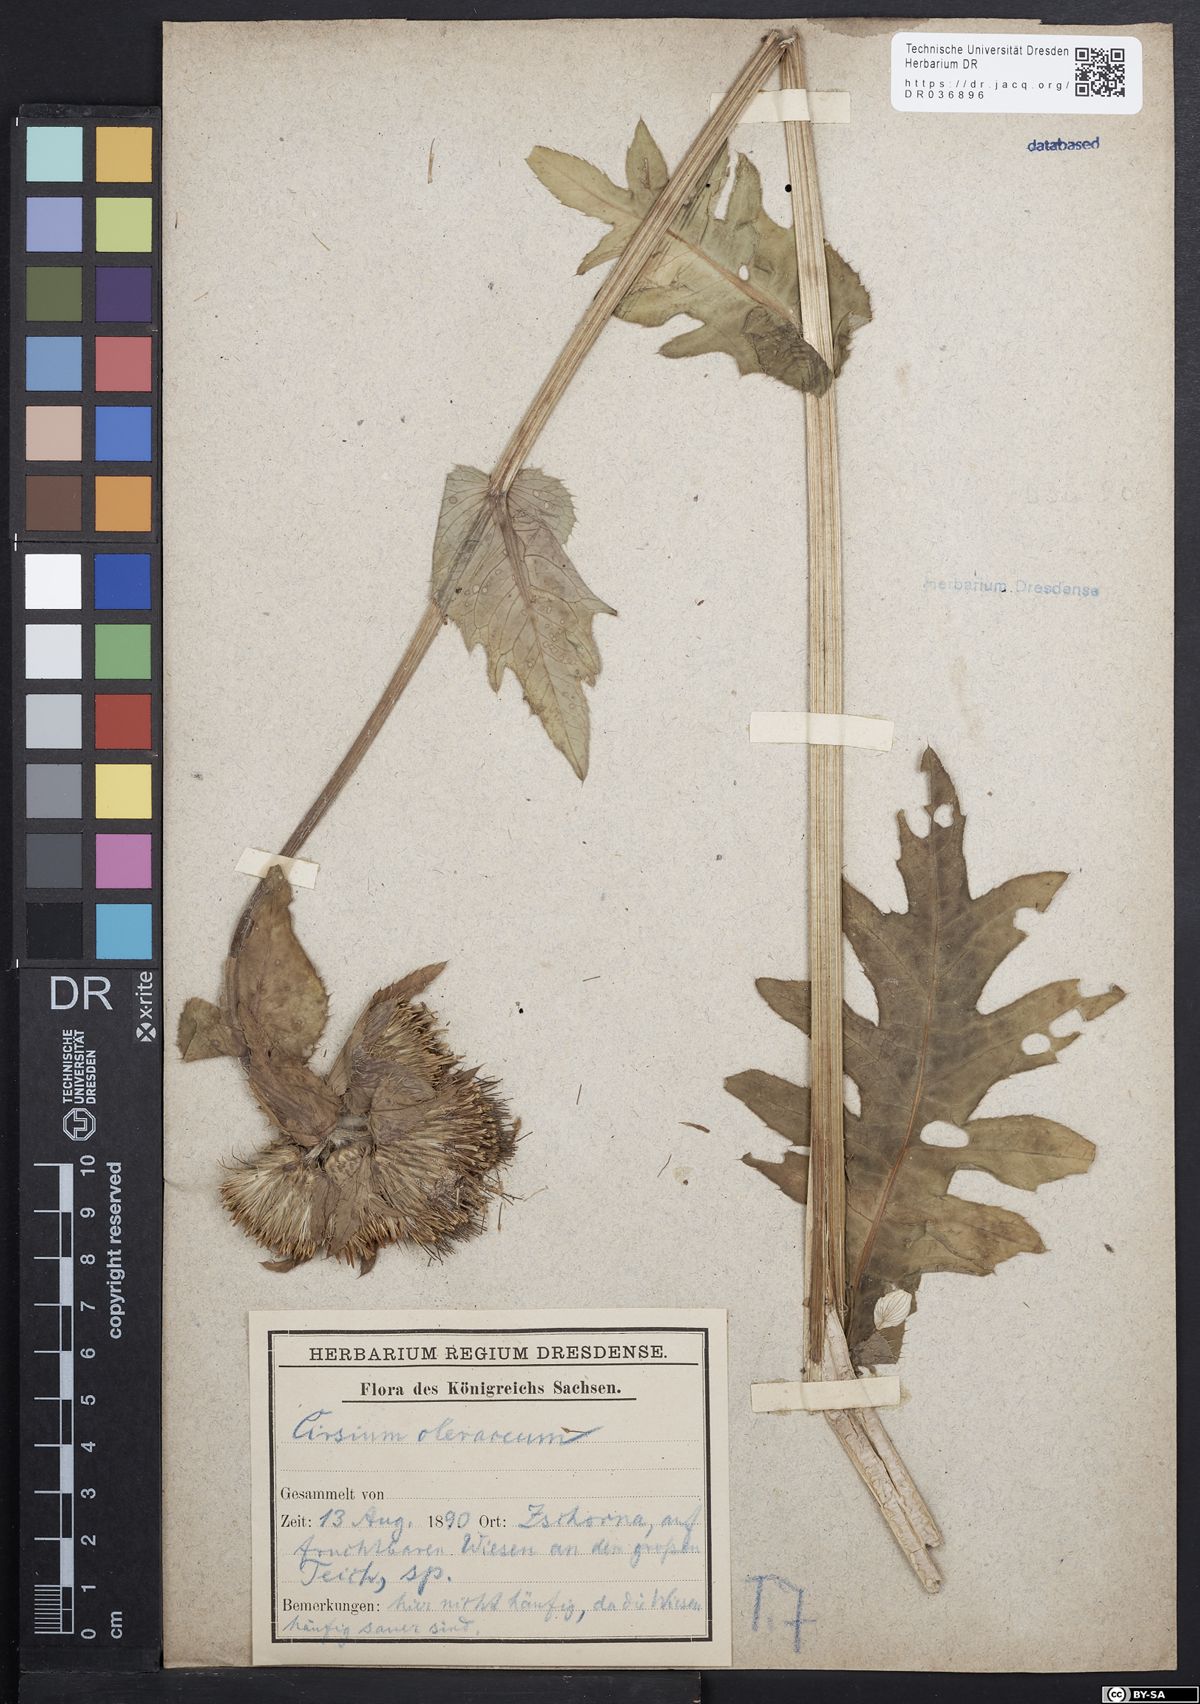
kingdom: Plantae
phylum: Tracheophyta
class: Magnoliopsida
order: Asterales
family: Asteraceae
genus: Cirsium
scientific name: Cirsium oleraceum
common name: Cabbage thistle
